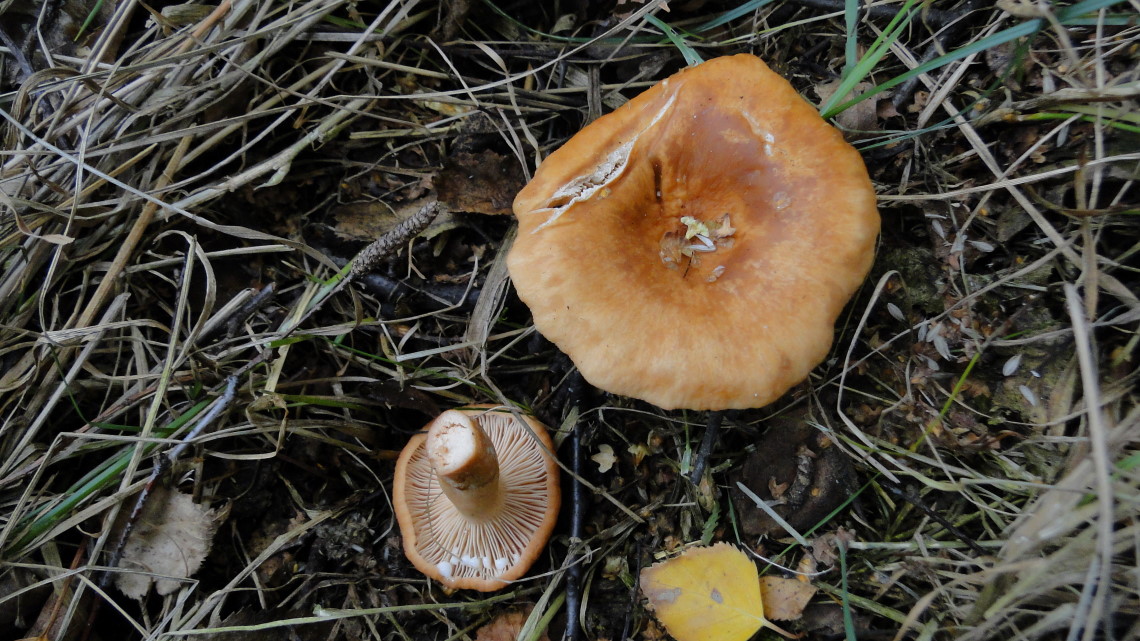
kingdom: Fungi
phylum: Basidiomycota
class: Agaricomycetes
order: Russulales
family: Russulaceae
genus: Lactarius
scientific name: Lactarius tabidus
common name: rynket mælkehat
